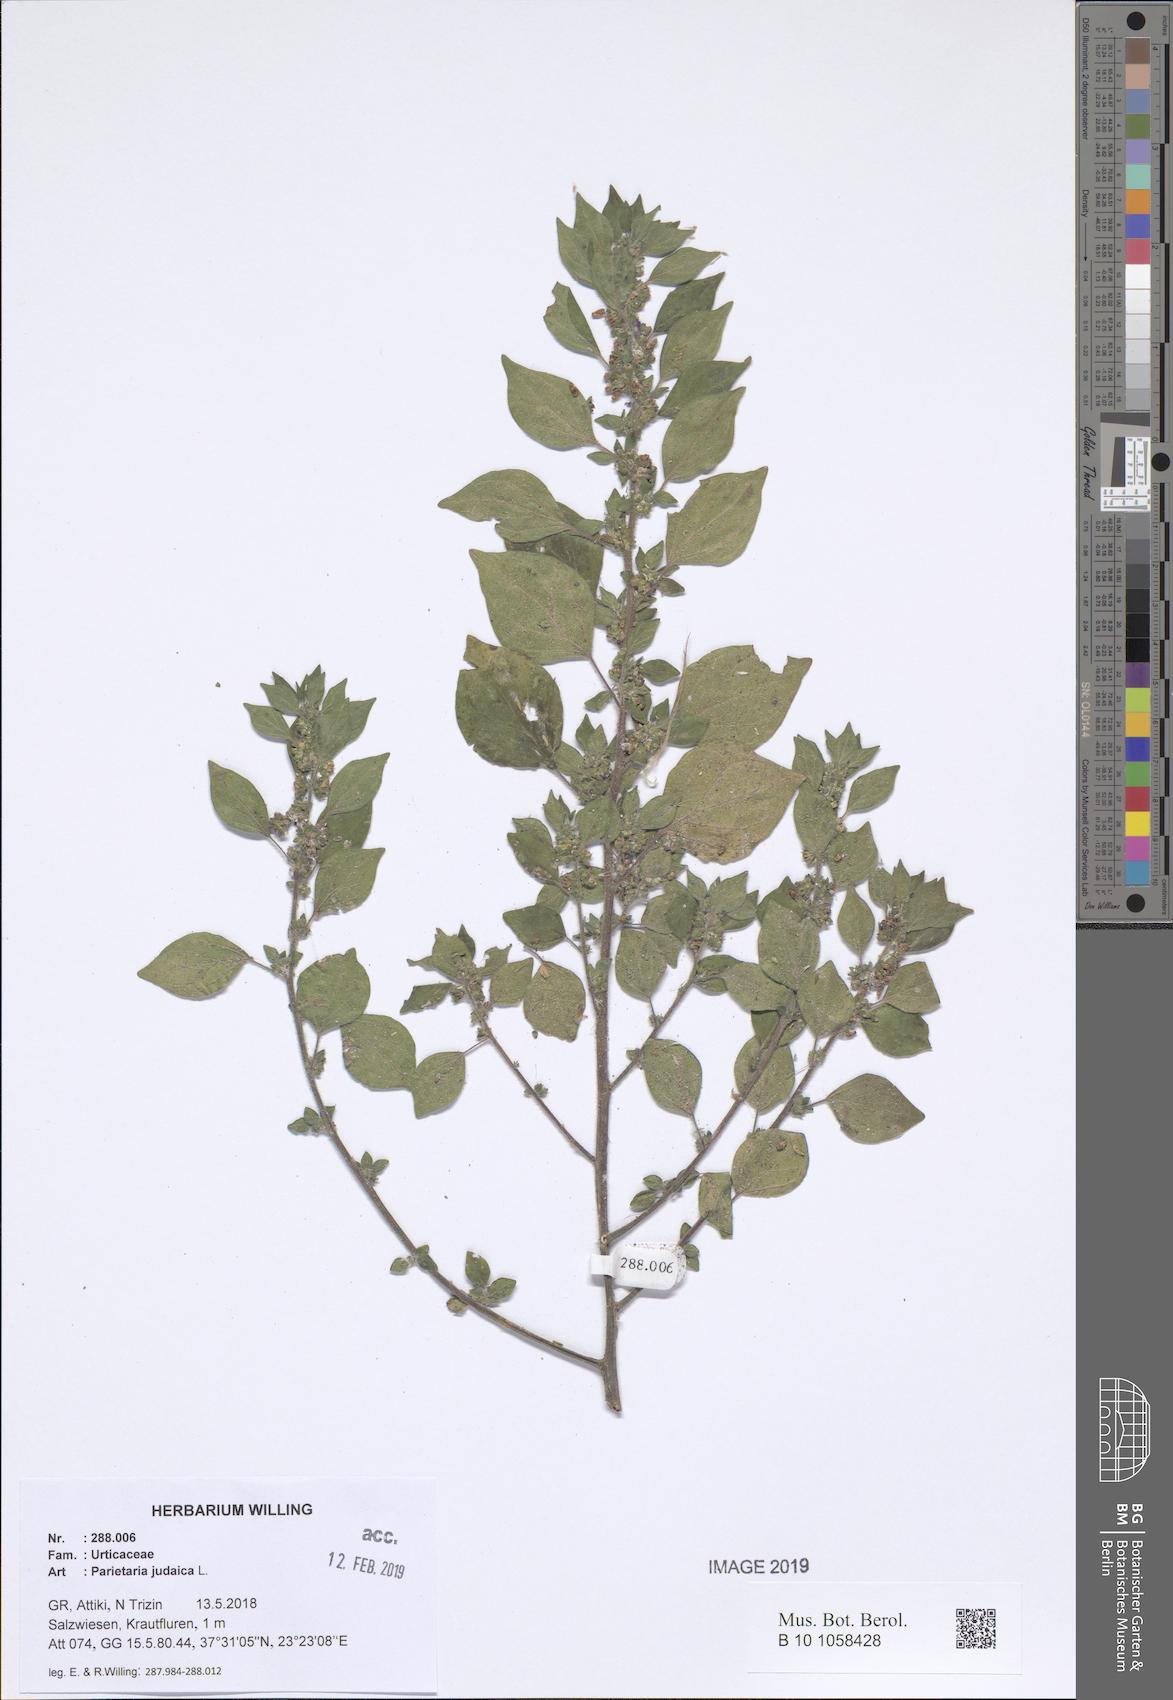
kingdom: Plantae
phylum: Tracheophyta
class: Magnoliopsida
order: Rosales
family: Urticaceae
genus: Parietaria
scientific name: Parietaria judaica
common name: Pellitory-of-the-wall
